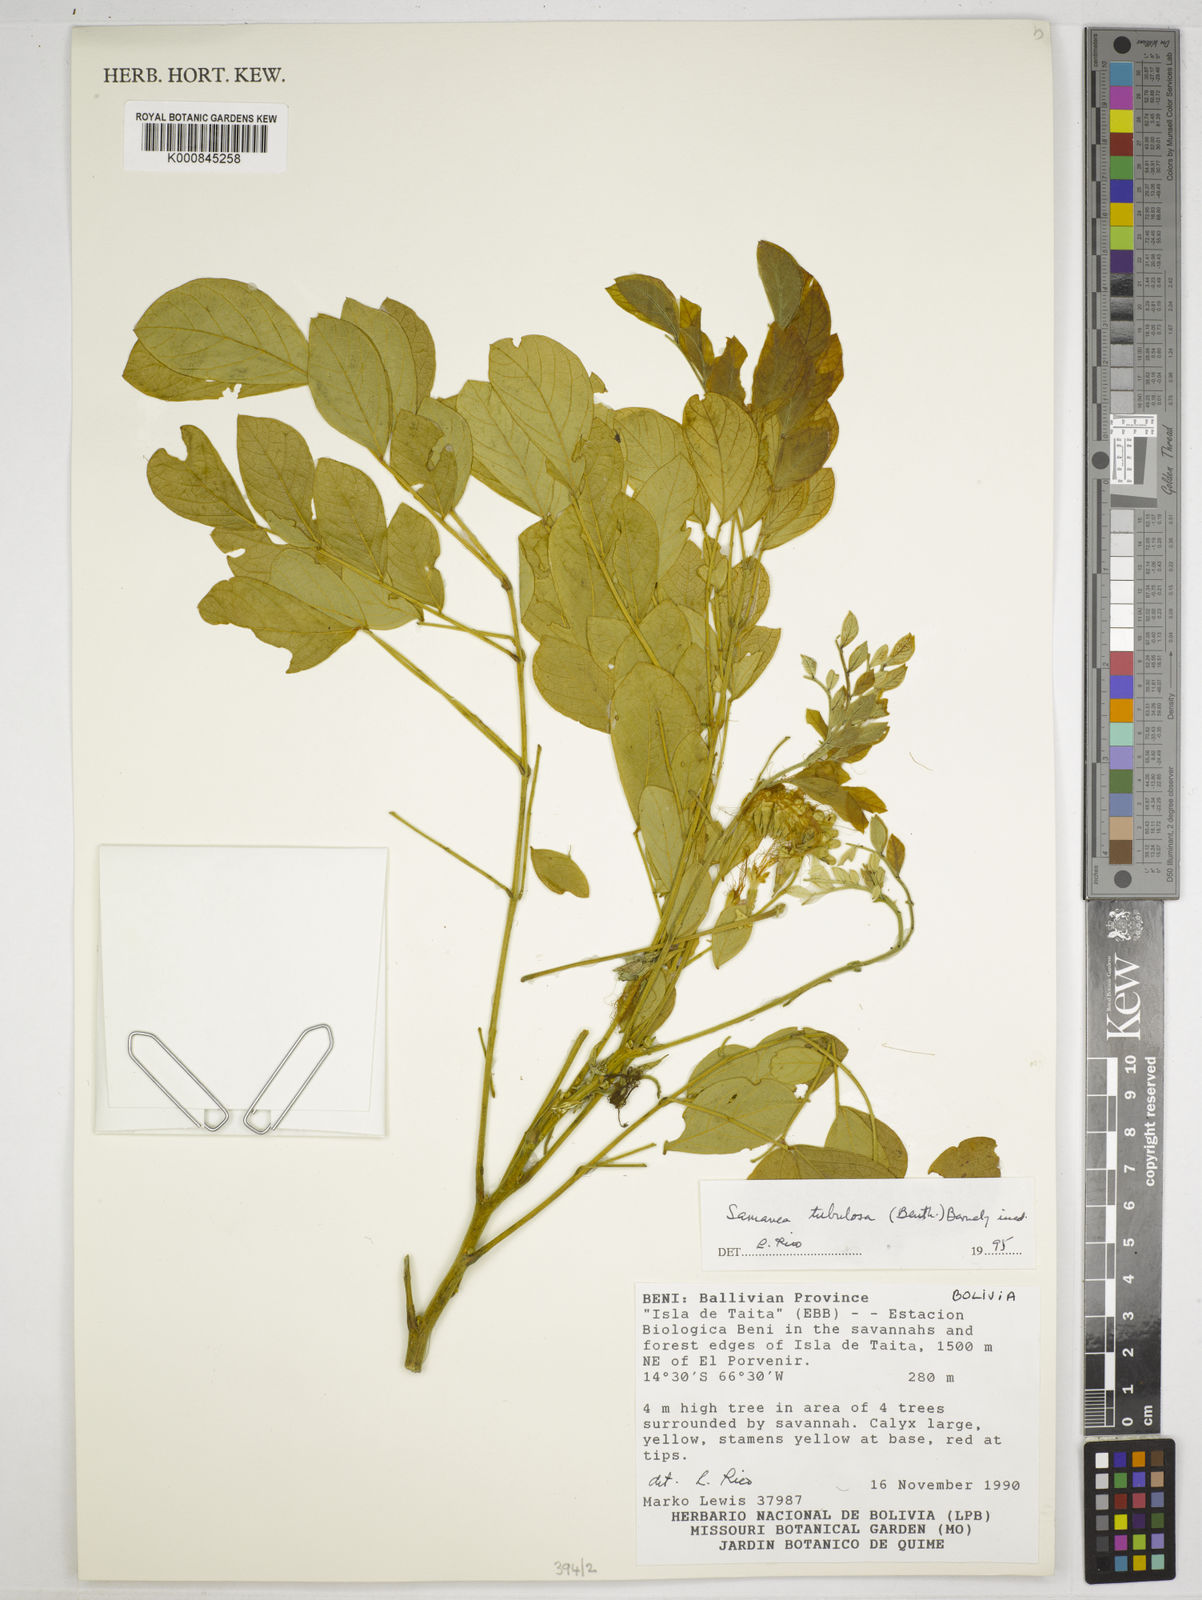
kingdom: Plantae
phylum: Tracheophyta
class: Magnoliopsida
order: Fabales
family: Fabaceae
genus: Samanea
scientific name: Samanea tubulosa
